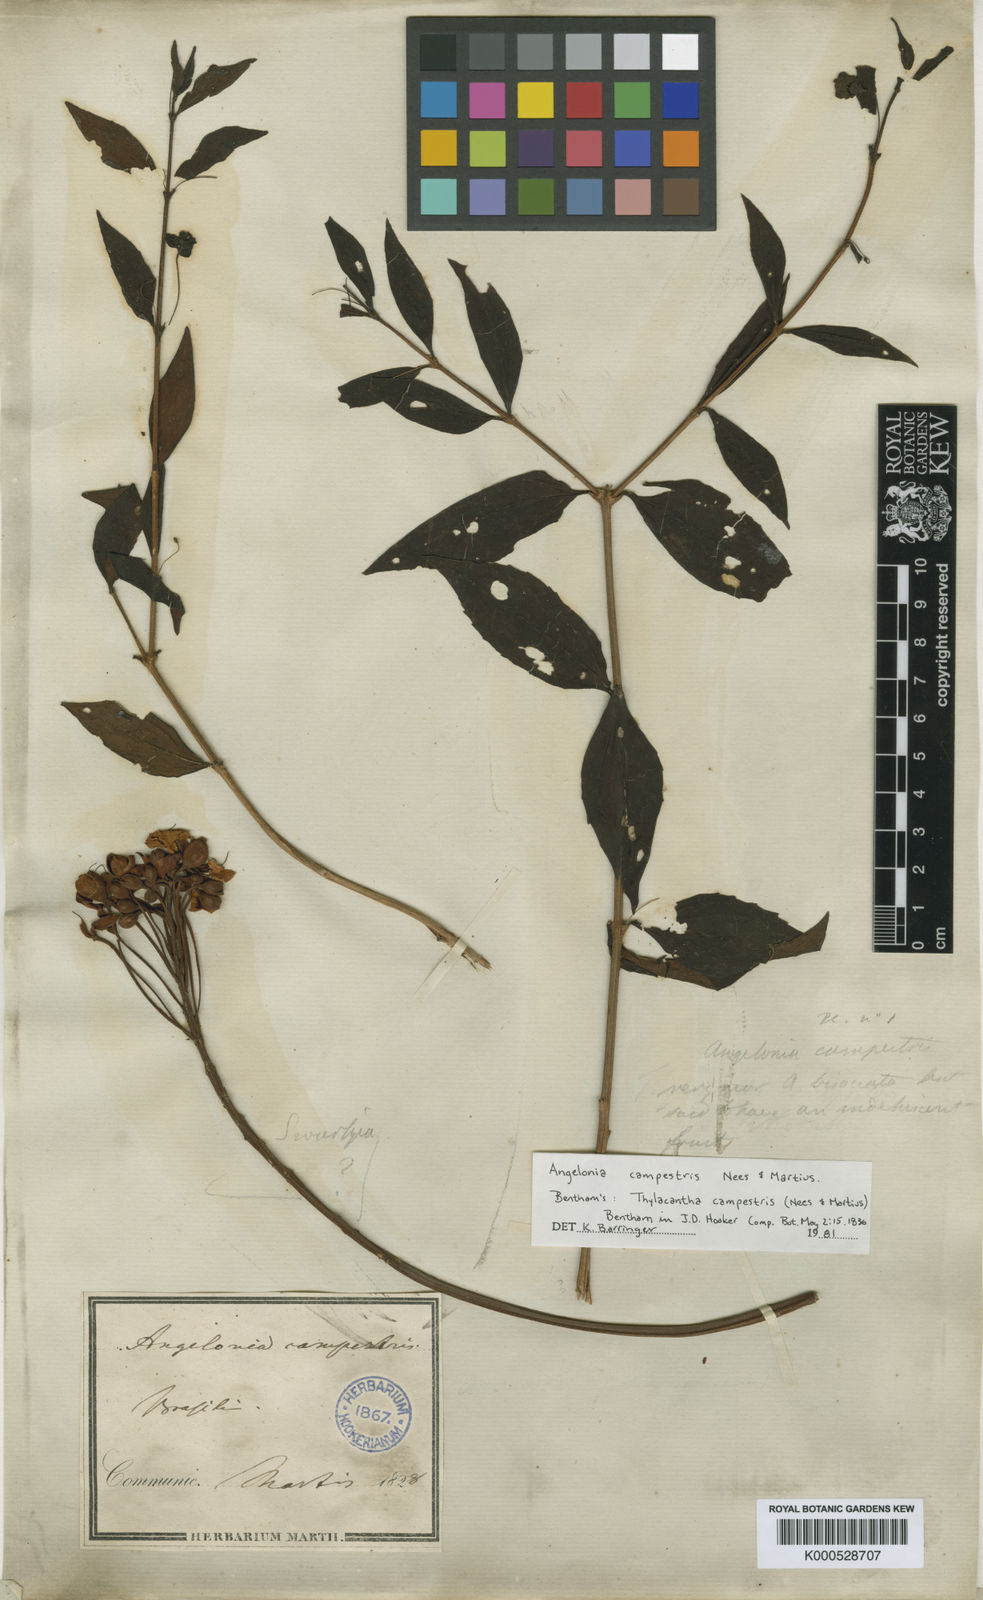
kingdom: Plantae
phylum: Tracheophyta
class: Magnoliopsida
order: Lamiales
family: Plantaginaceae
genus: Angelonia
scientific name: Angelonia campestris
